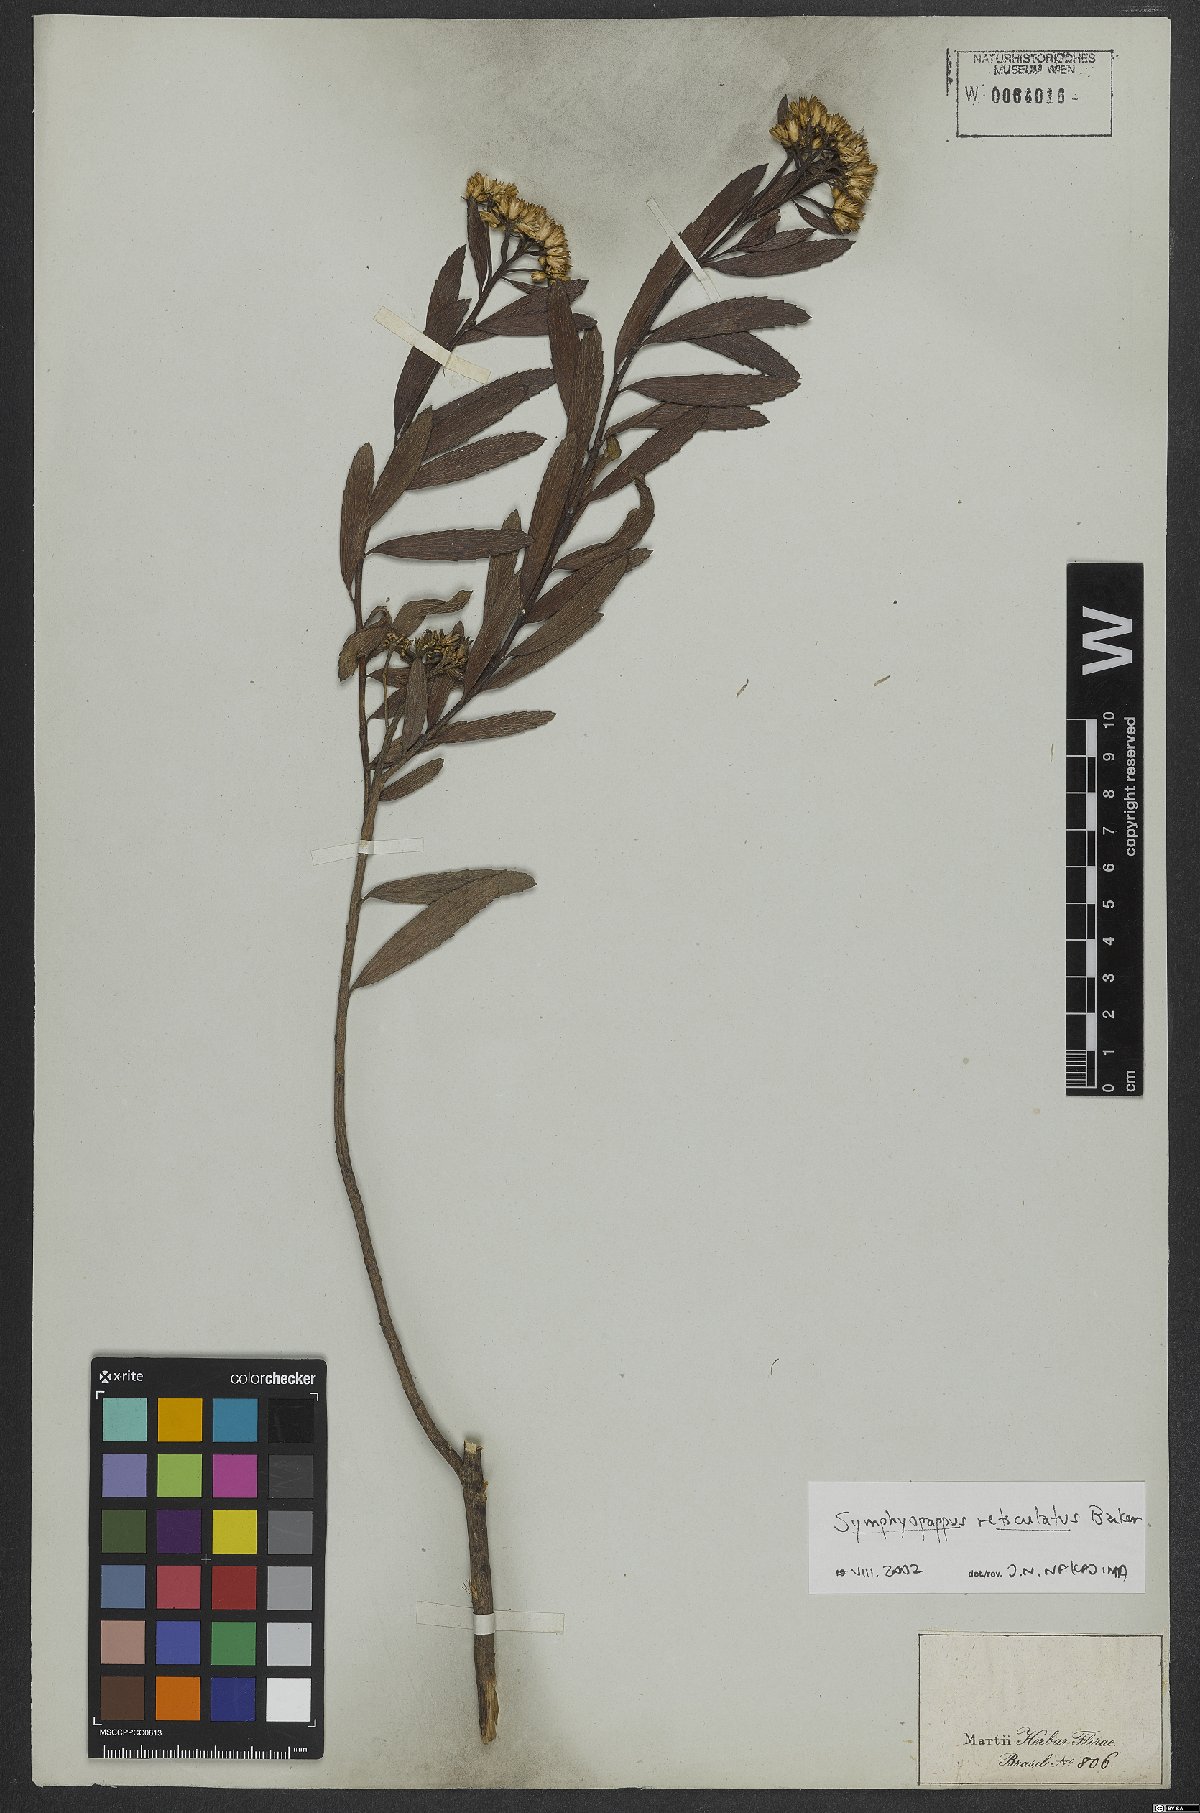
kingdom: Plantae
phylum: Tracheophyta
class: Magnoliopsida
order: Asterales
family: Asteraceae
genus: Symphyopappus
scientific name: Symphyopappus reticulatus
